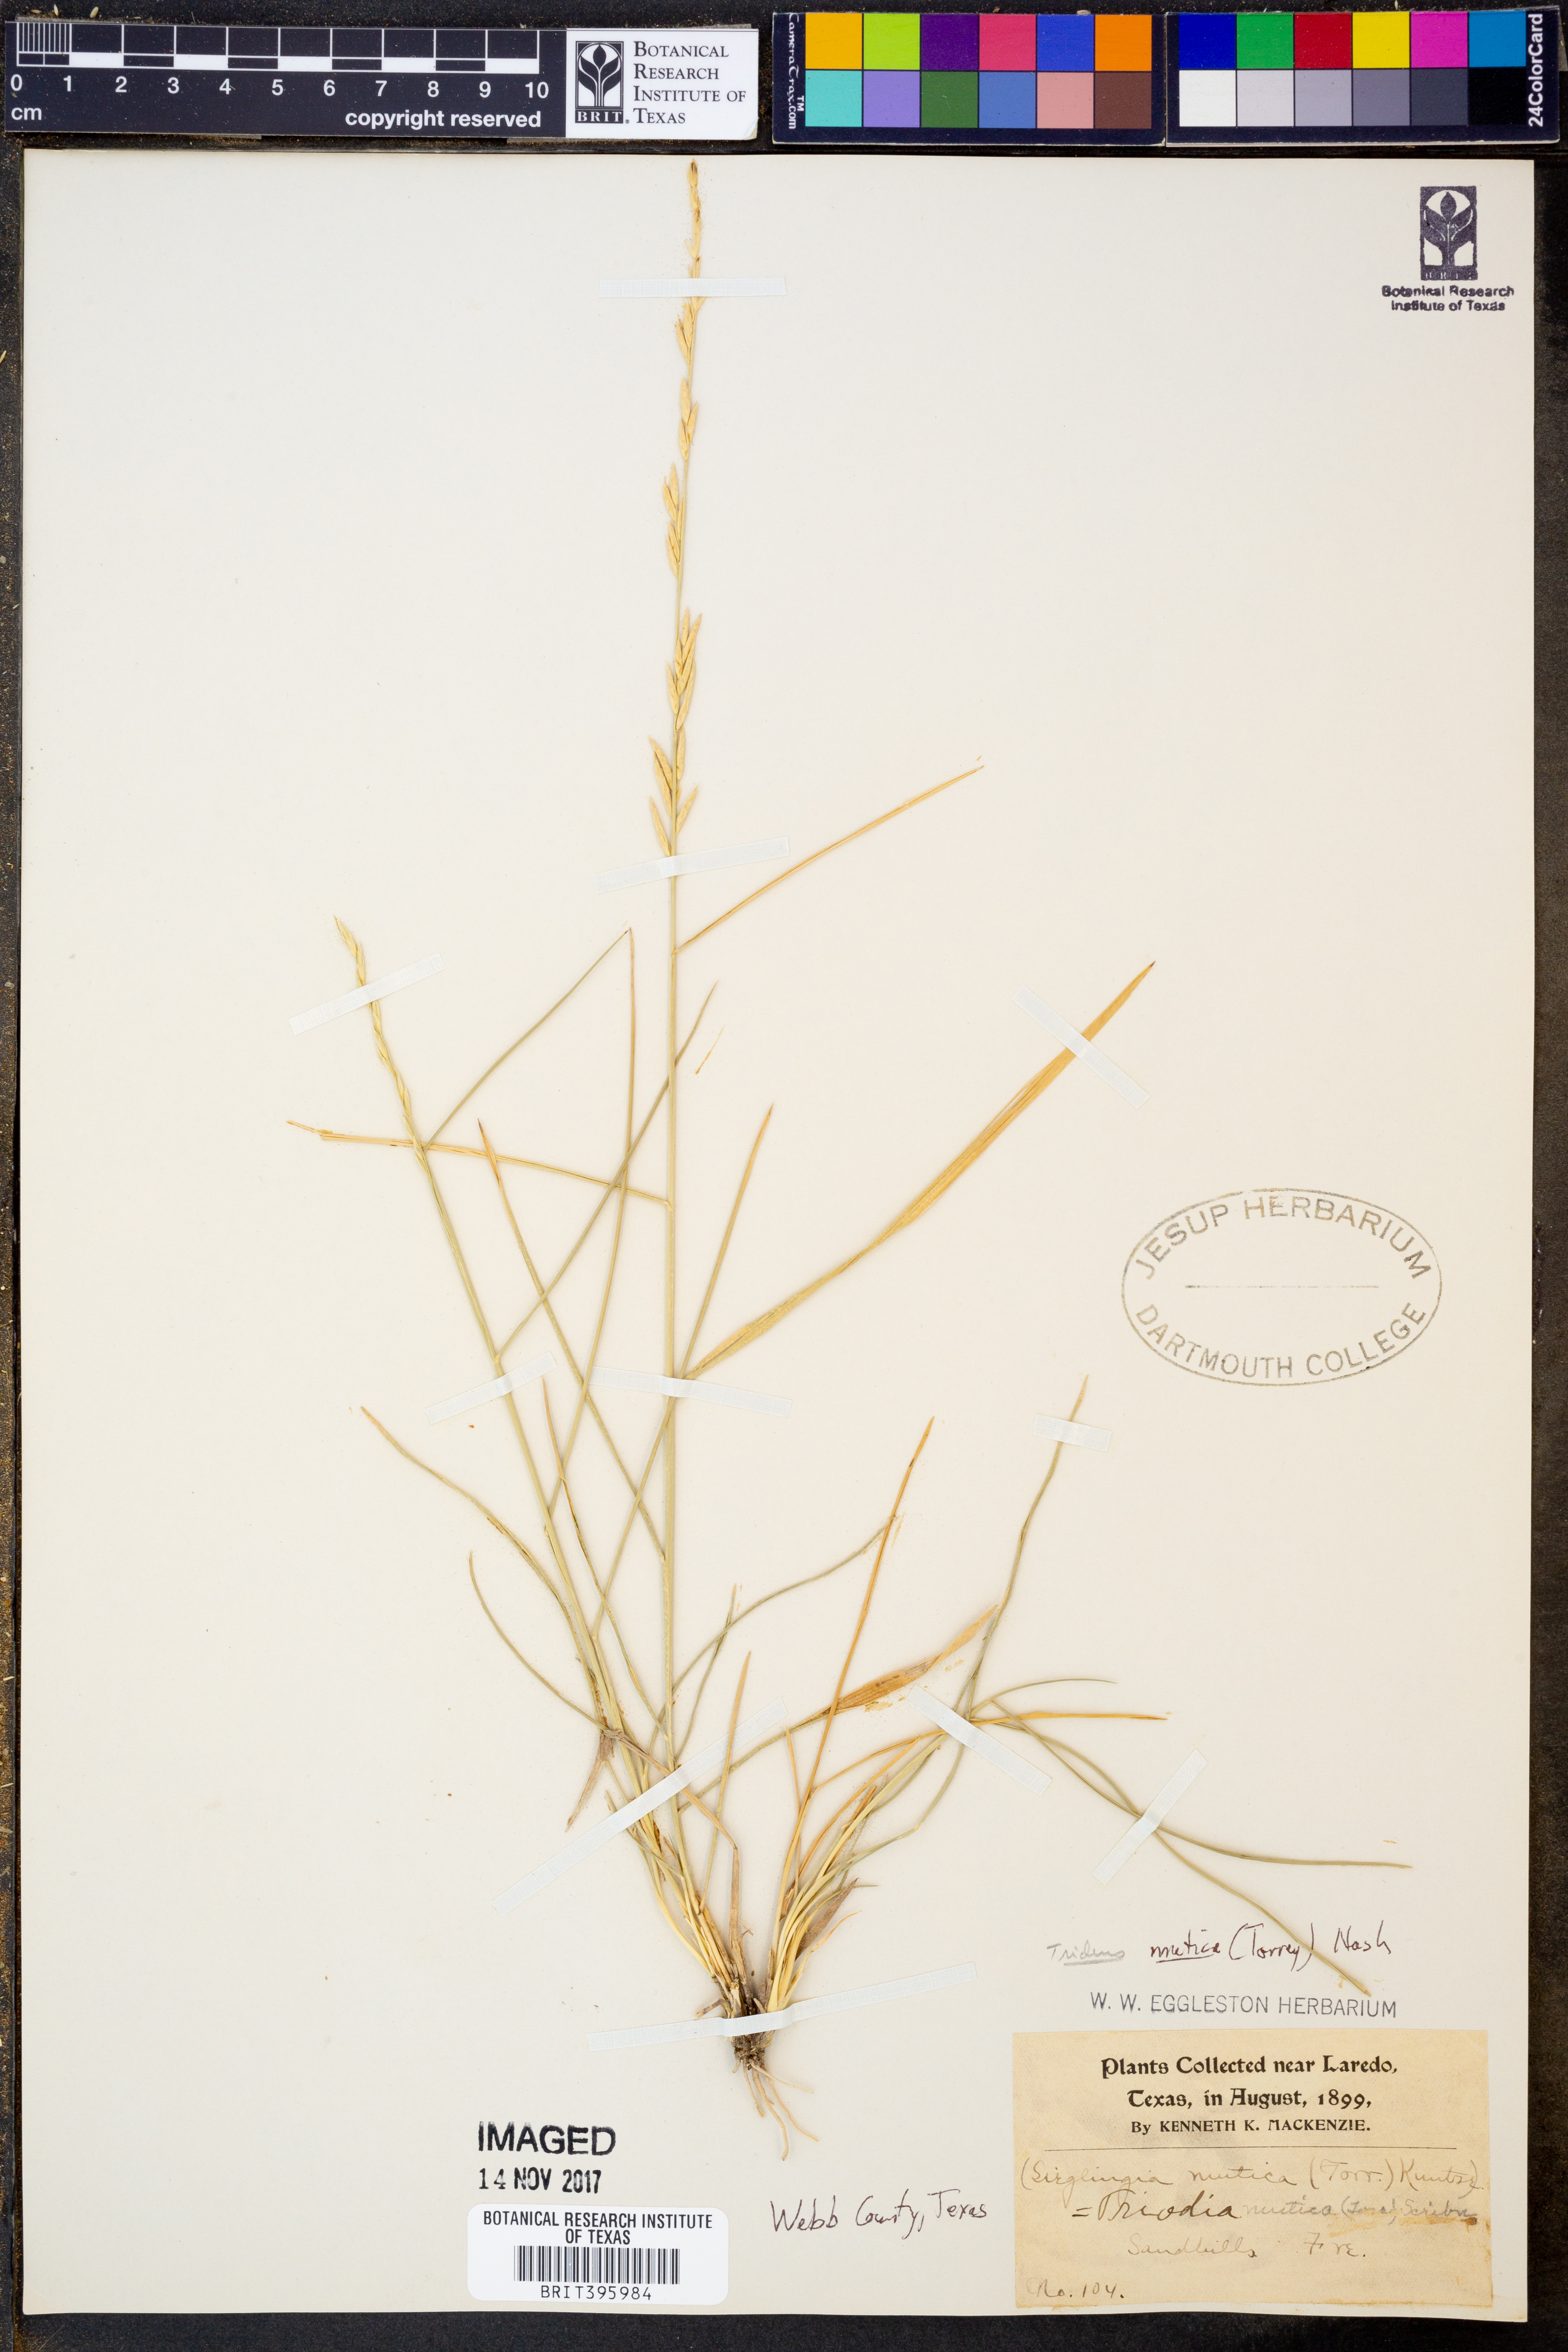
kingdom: Plantae
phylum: Tracheophyta
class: Liliopsida
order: Poales
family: Poaceae
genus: Tridentopsis
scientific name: Tridentopsis mutica
